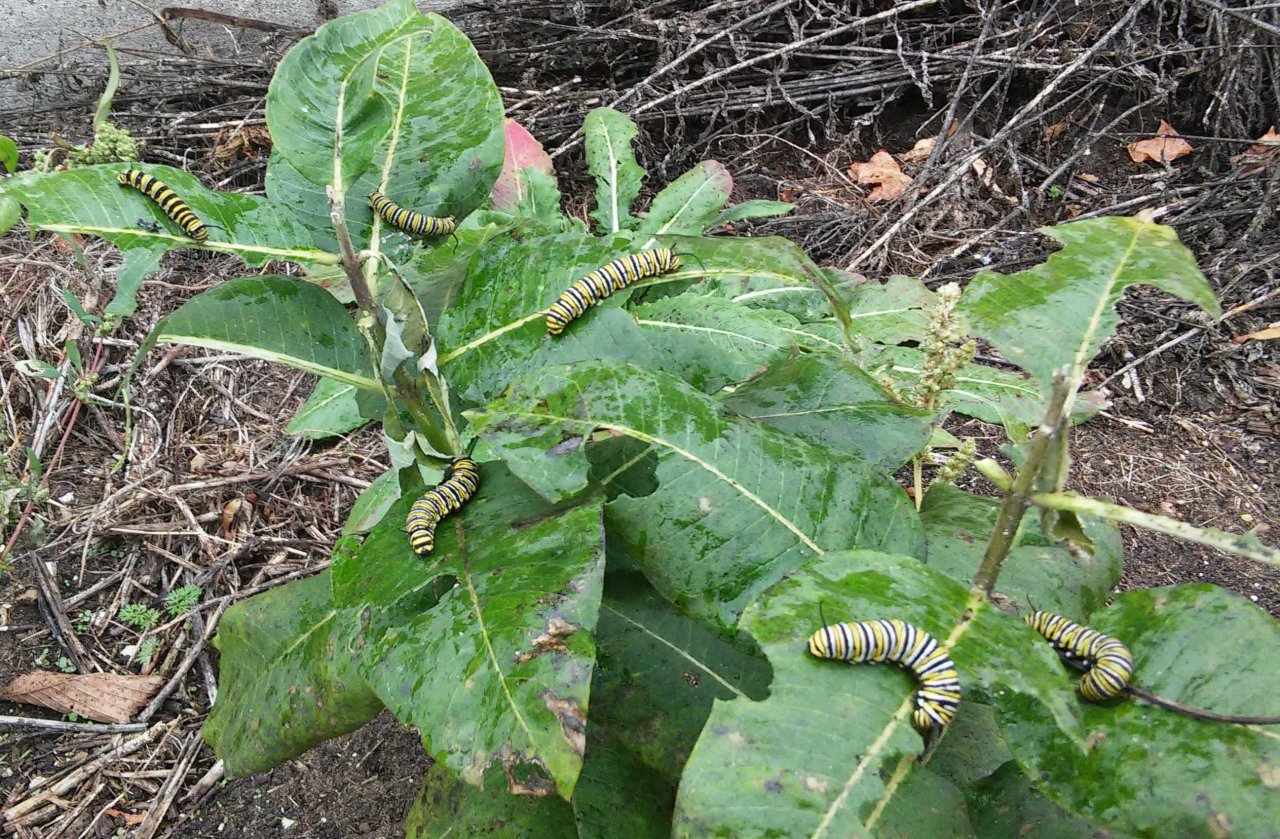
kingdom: Animalia
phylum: Arthropoda
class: Insecta
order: Lepidoptera
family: Nymphalidae
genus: Danaus
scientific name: Danaus plexippus
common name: Monarch
